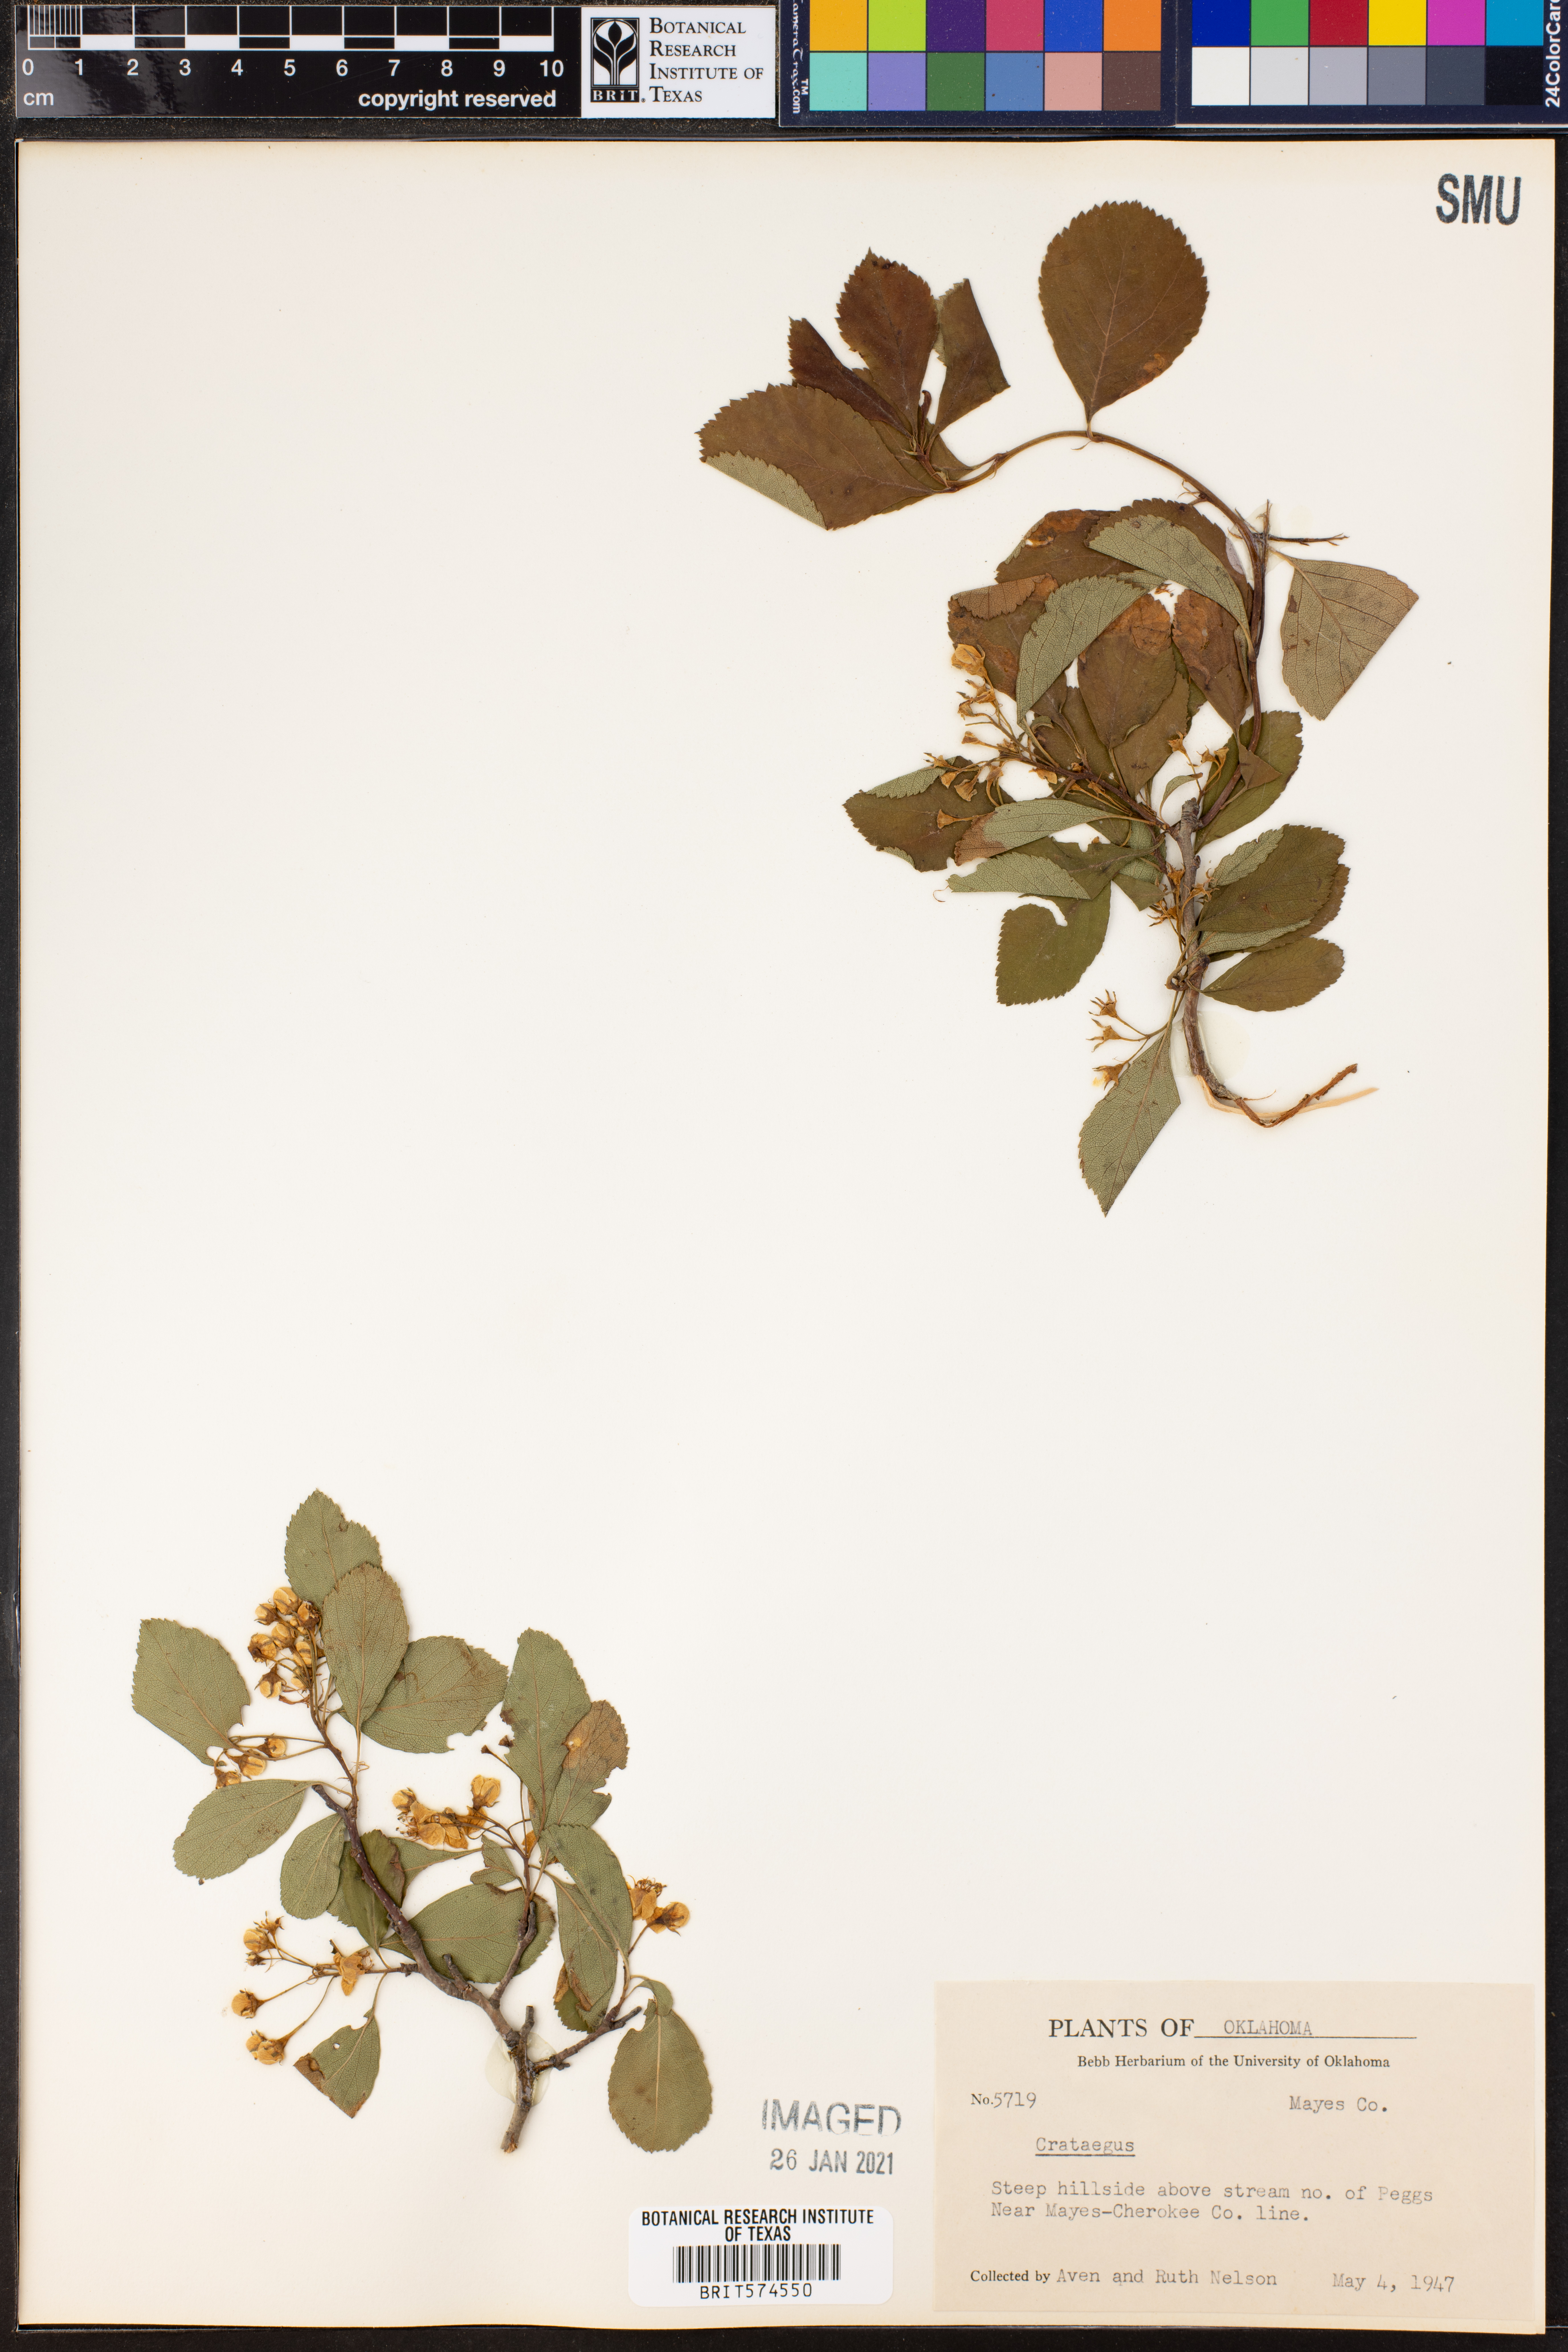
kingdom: Plantae
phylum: Tracheophyta
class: Magnoliopsida
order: Rosales
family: Rosaceae
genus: Crataegus
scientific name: Crataegus
